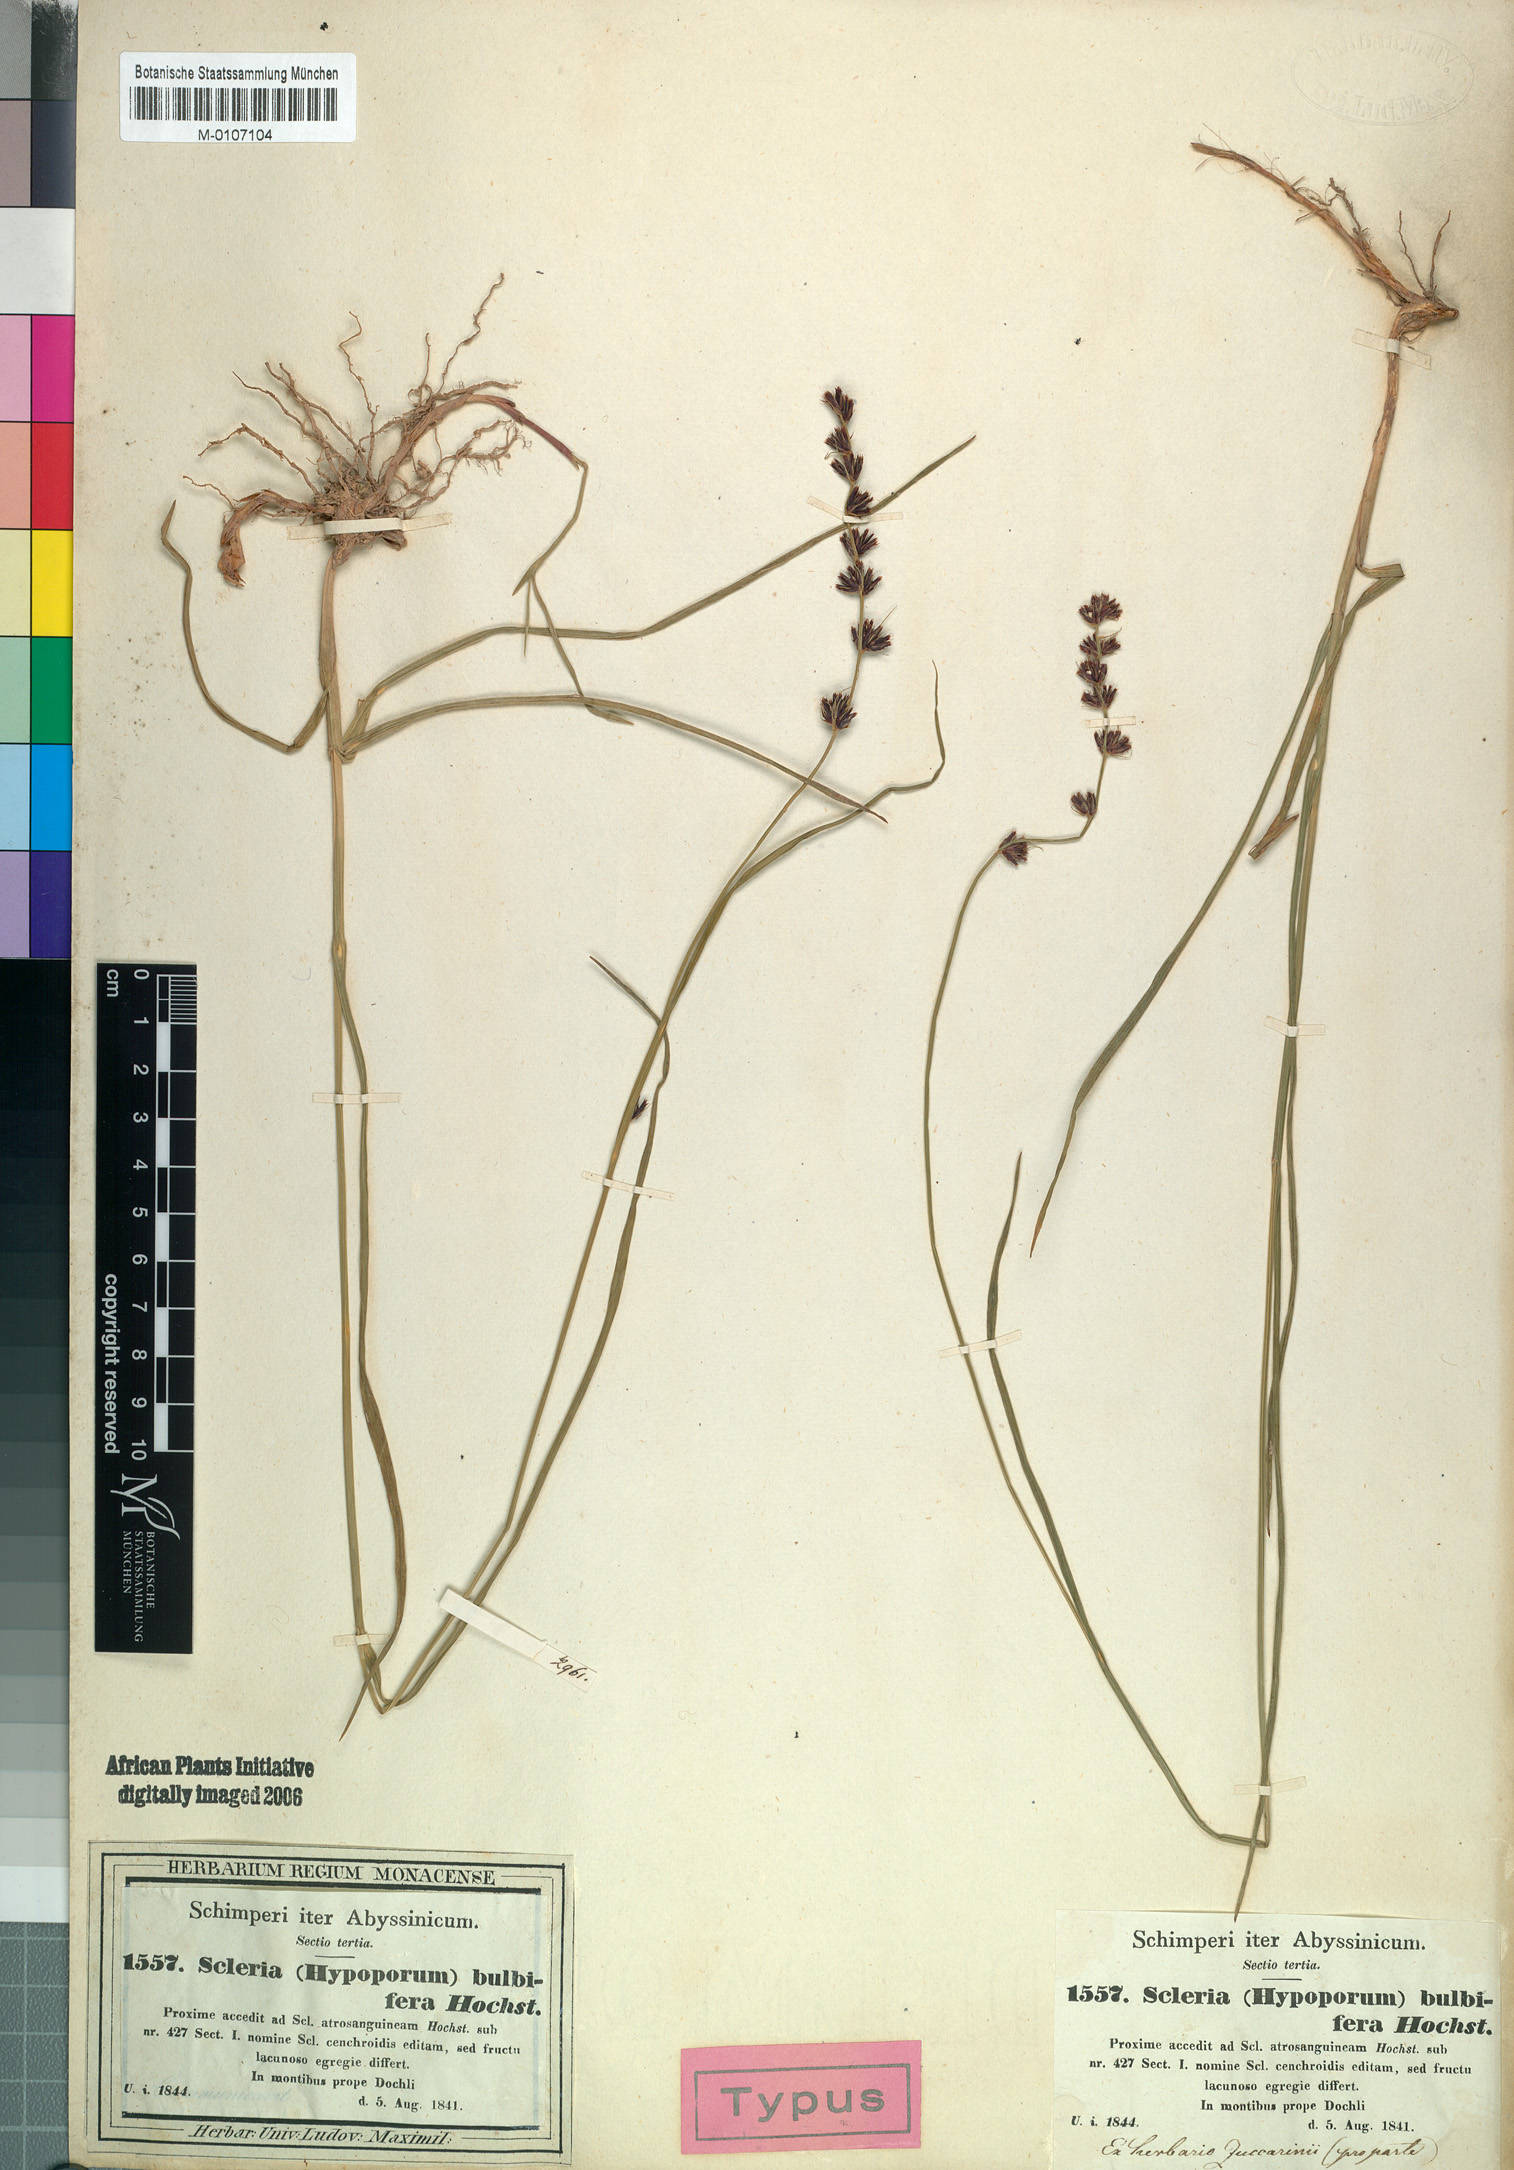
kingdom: Plantae
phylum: Tracheophyta
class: Liliopsida
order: Poales
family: Cyperaceae
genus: Scleria
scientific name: Scleria bulbifera
